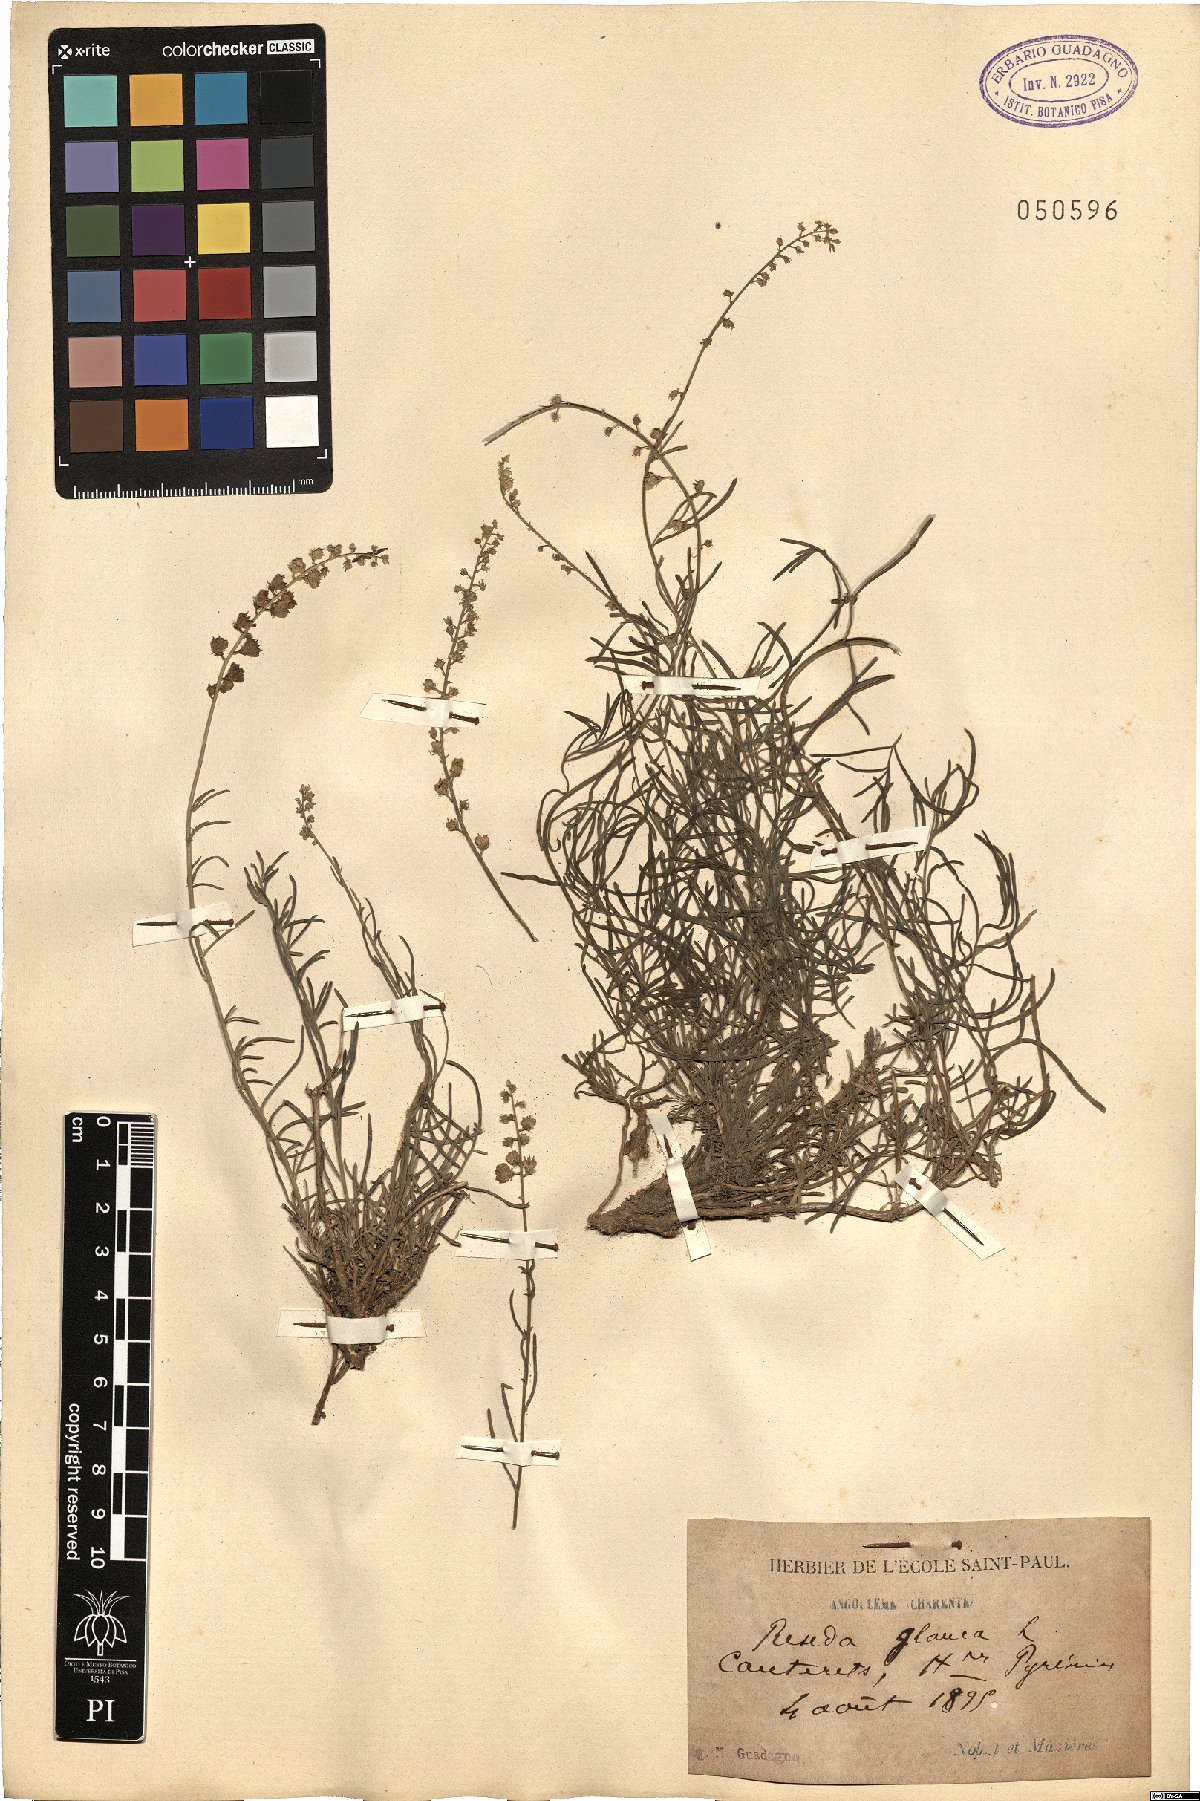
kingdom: Plantae
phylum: Tracheophyta
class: Magnoliopsida
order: Brassicales
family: Resedaceae
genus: Reseda
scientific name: Reseda glauca
